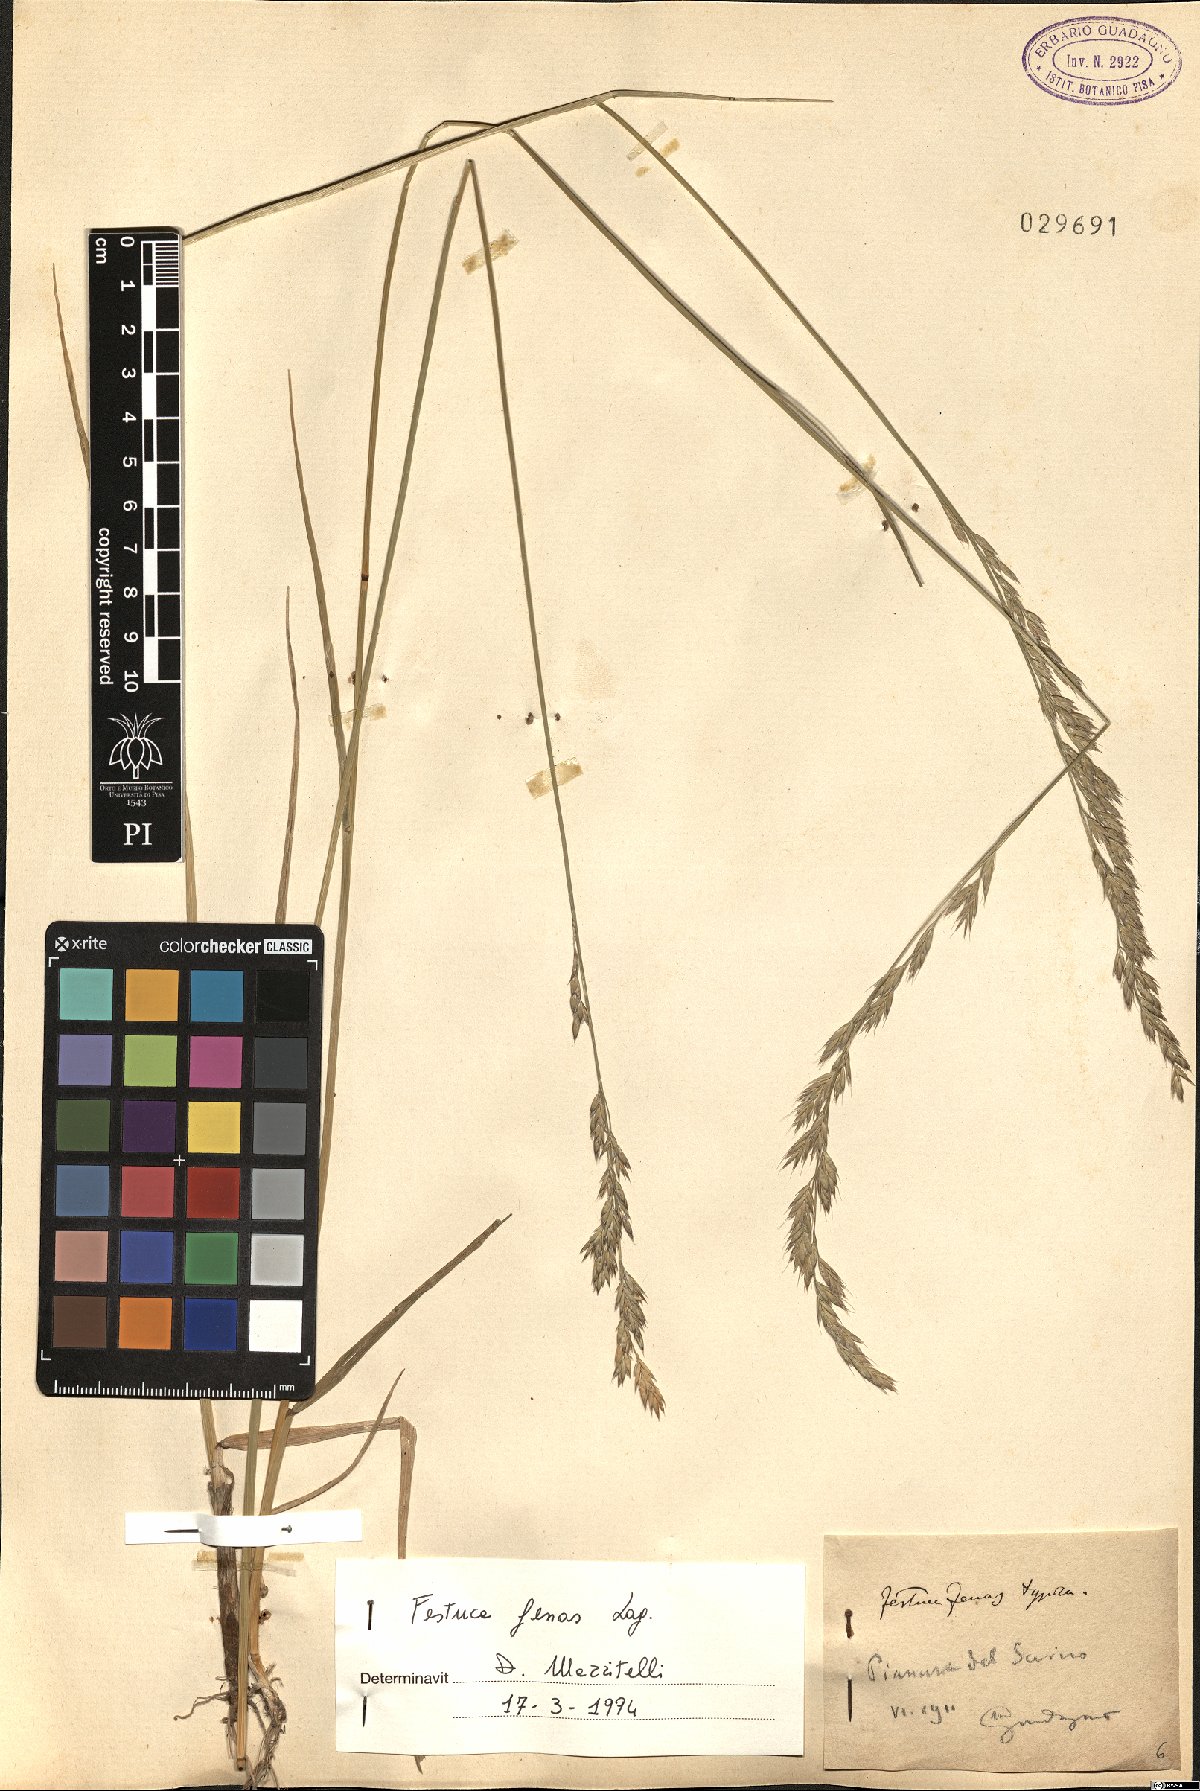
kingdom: Plantae
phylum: Tracheophyta
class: Liliopsida
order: Poales
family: Poaceae
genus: Lolium
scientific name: Lolium interruptum
